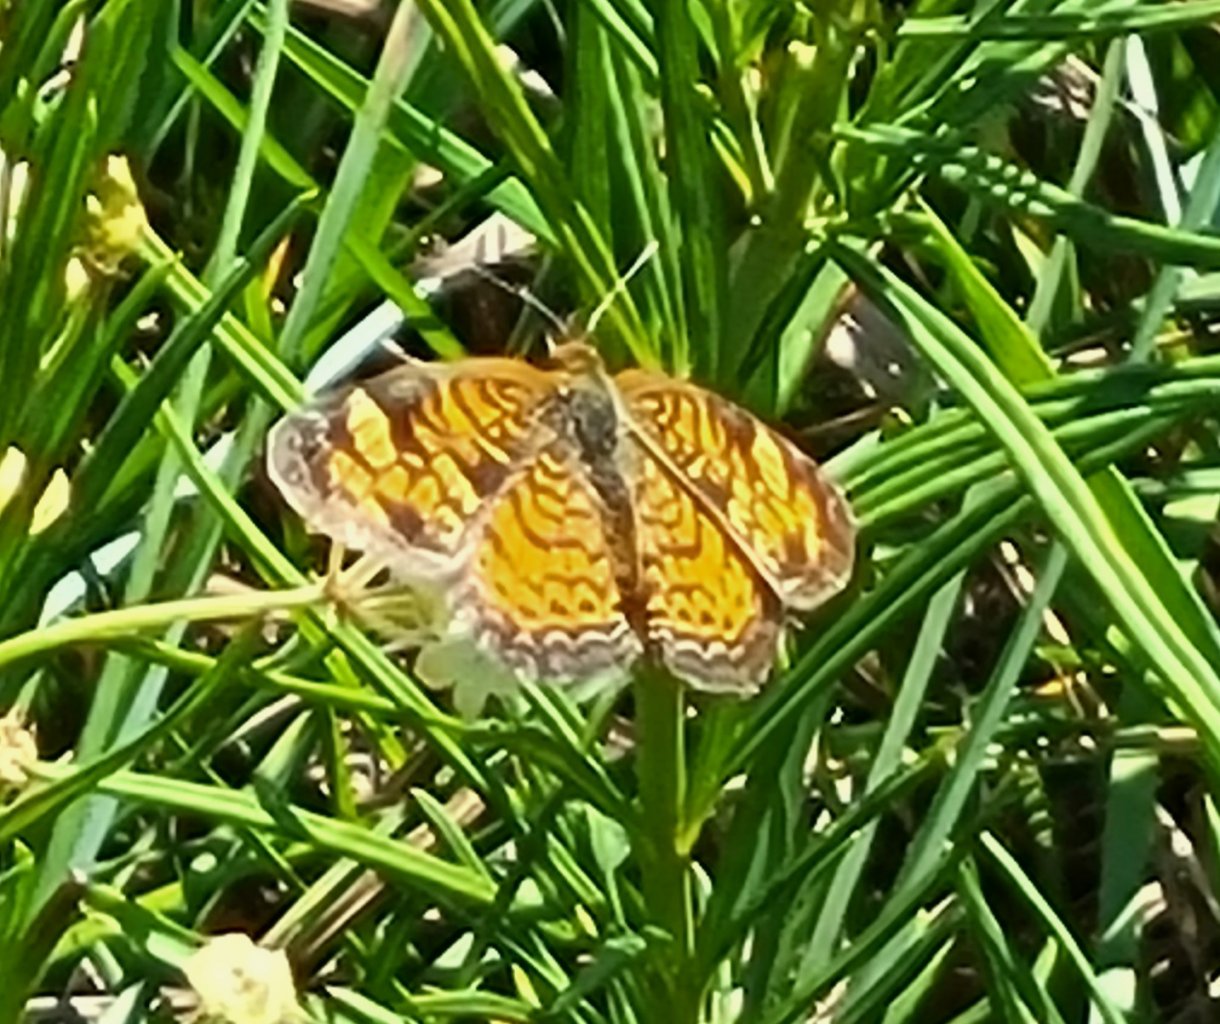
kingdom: Animalia
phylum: Arthropoda
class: Insecta
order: Lepidoptera
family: Nymphalidae
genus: Phyciodes
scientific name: Phyciodes tharos
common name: Pearl Crescent
